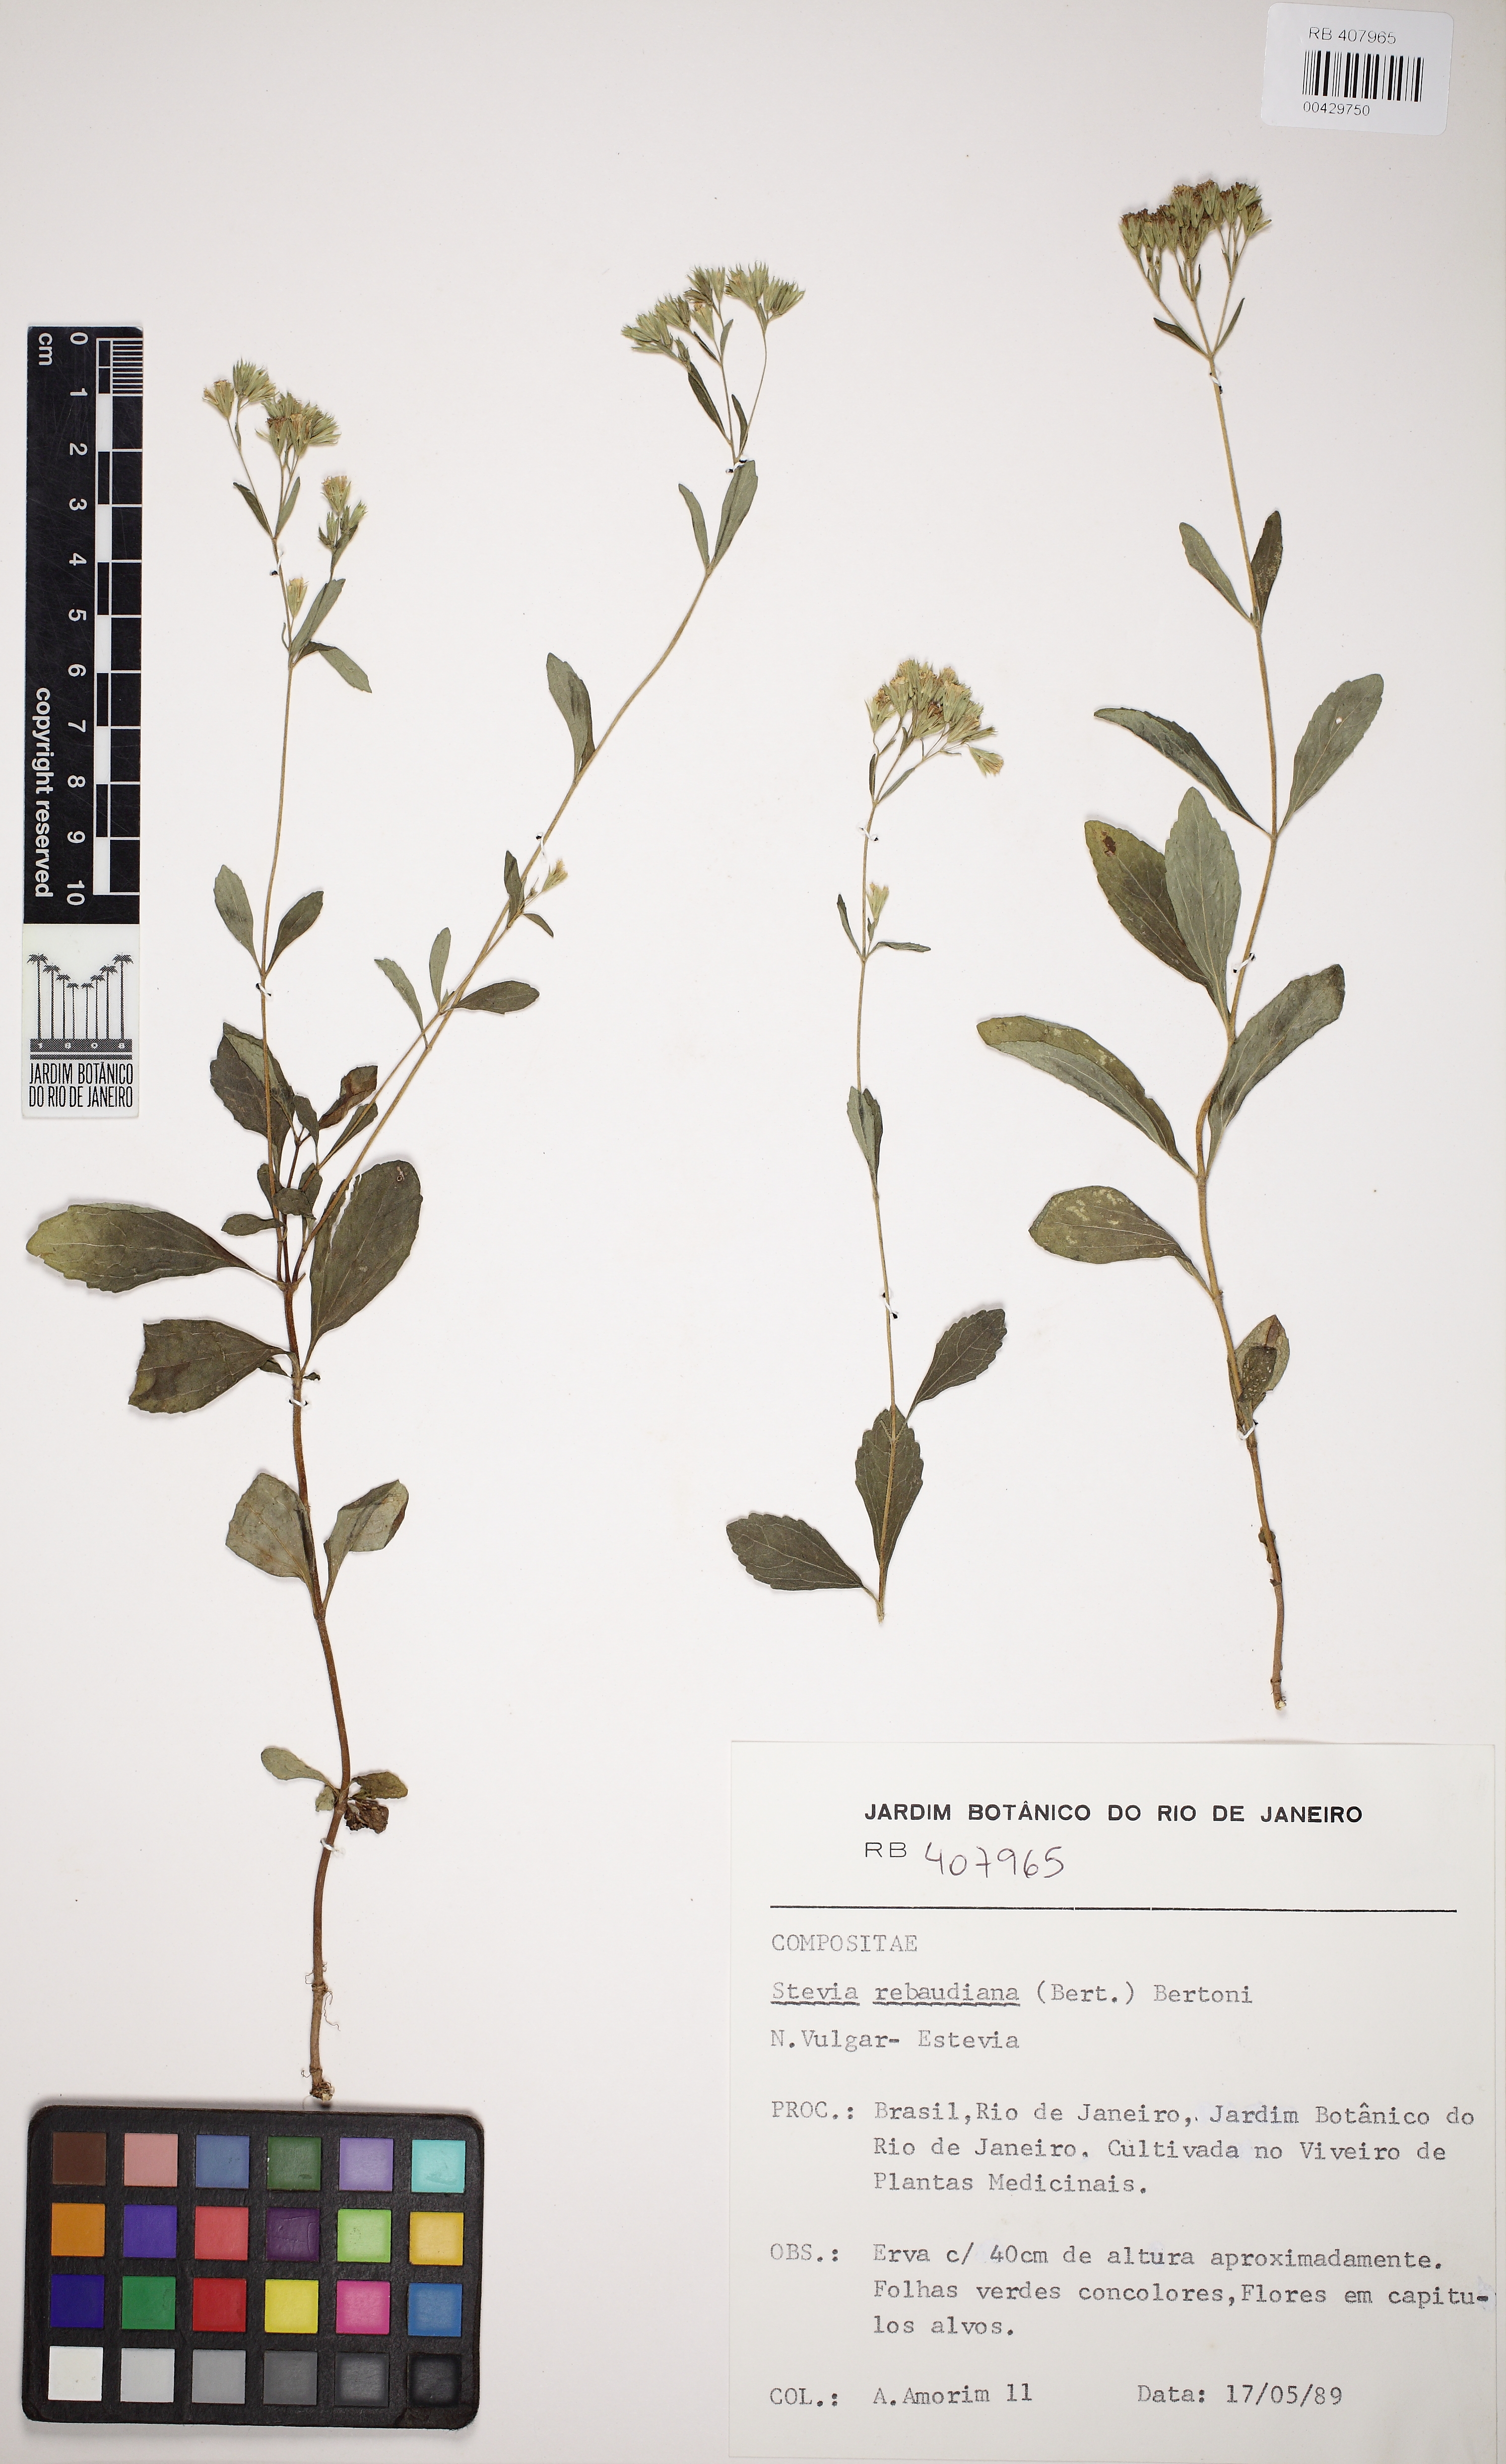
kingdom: Plantae
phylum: Tracheophyta
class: Magnoliopsida
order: Asterales
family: Asteraceae
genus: Stevia
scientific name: Stevia rebaudiana
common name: Stevia
